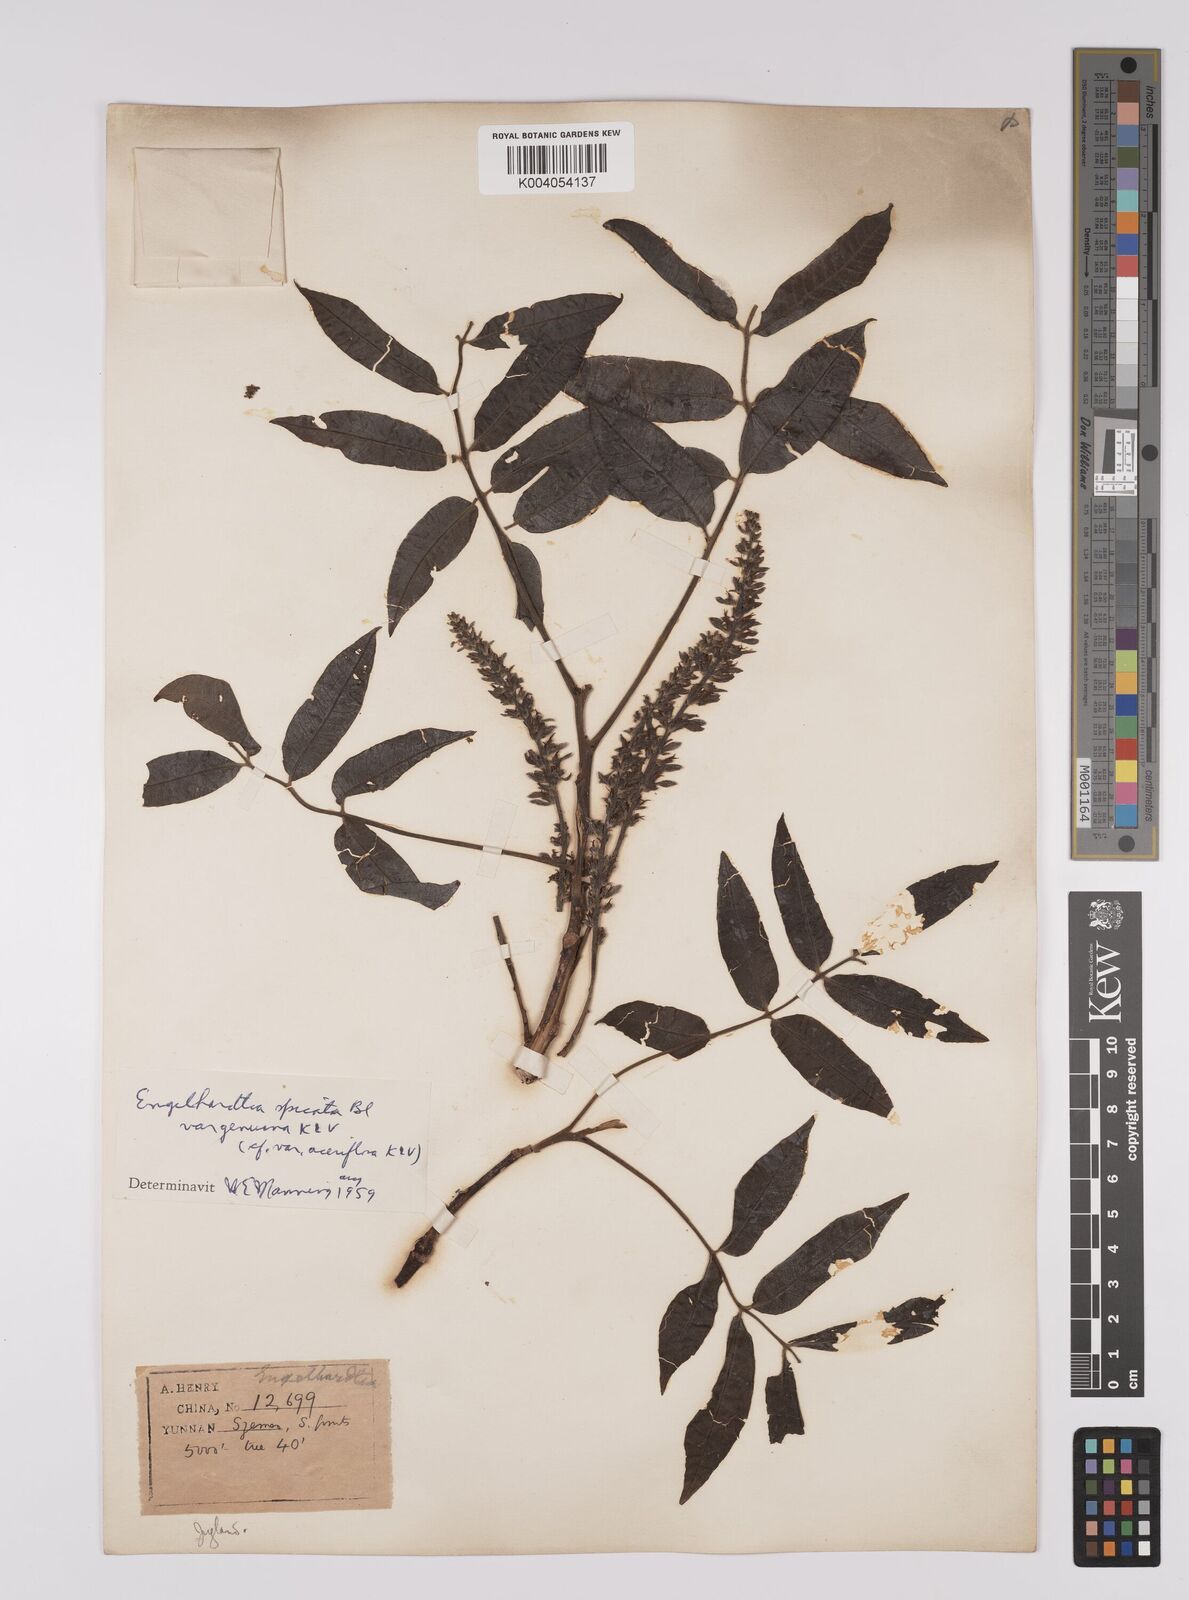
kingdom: Plantae
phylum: Tracheophyta
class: Magnoliopsida
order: Fagales
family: Juglandaceae
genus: Engelhardia
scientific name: Engelhardia spicata
